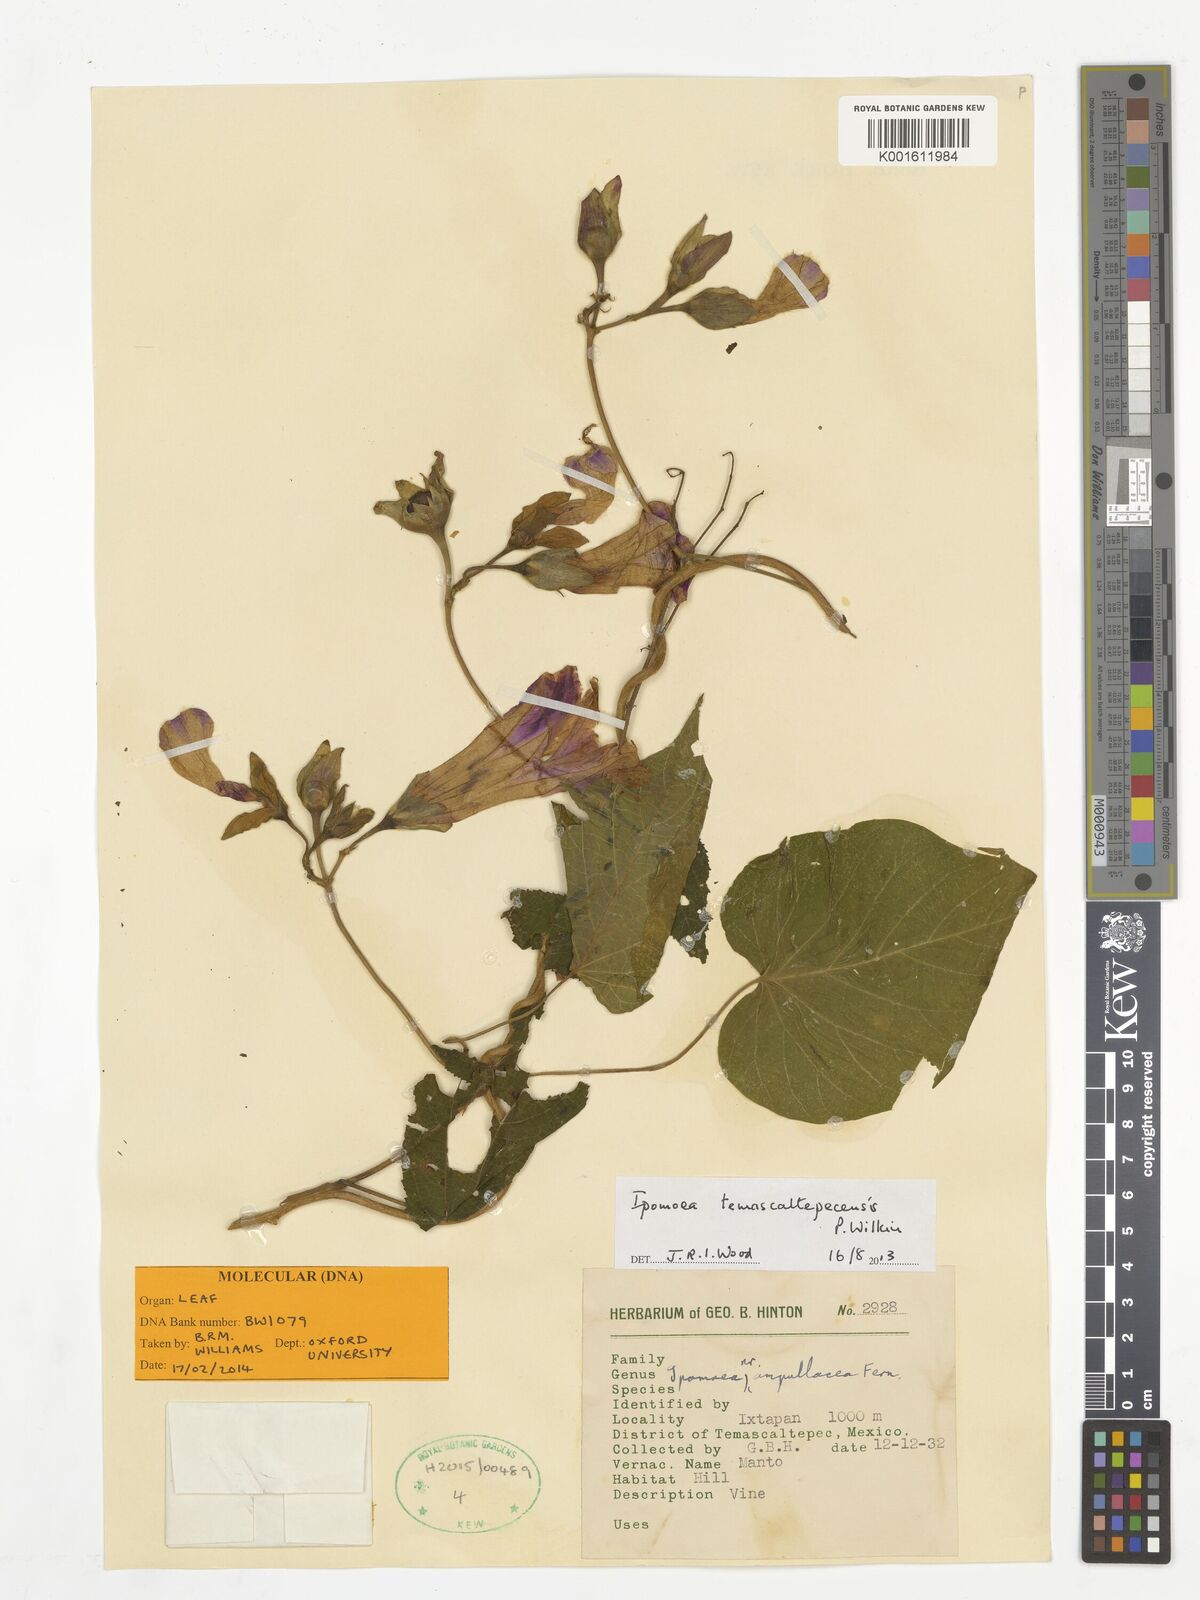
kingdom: Plantae
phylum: Tracheophyta
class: Magnoliopsida
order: Solanales
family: Convolvulaceae
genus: Ipomoea
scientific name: Ipomoea temascaltepecensis
